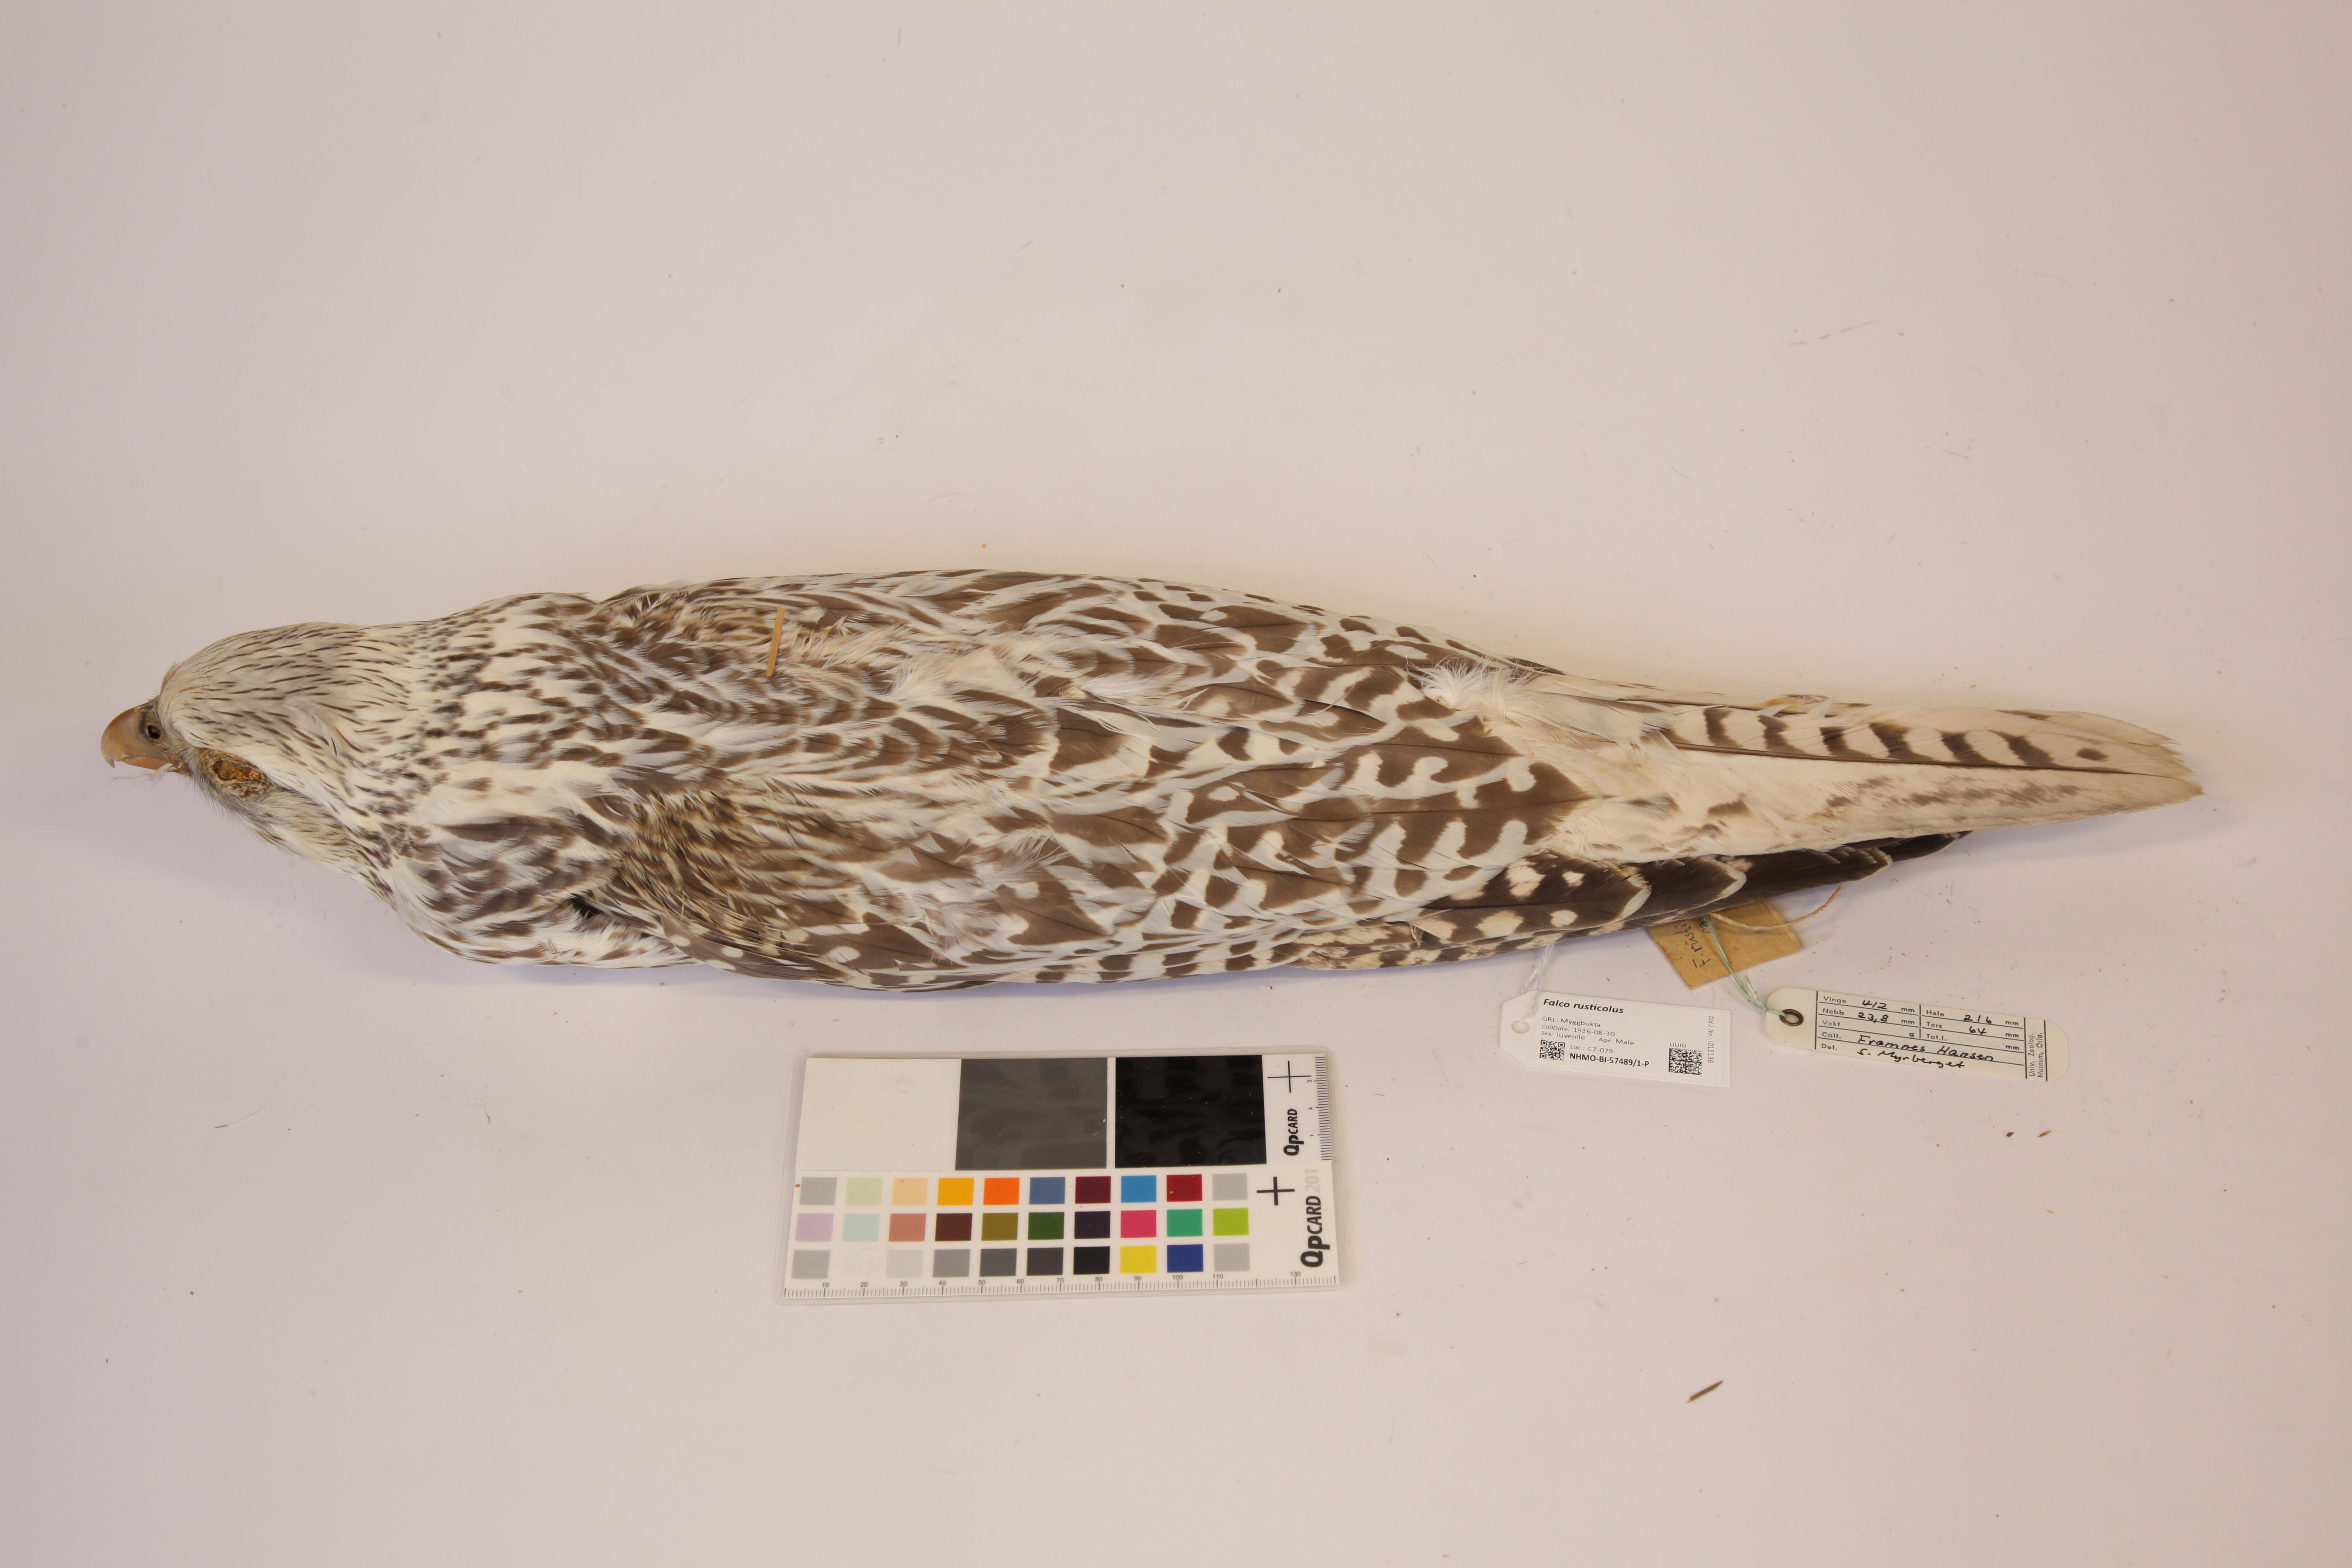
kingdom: Animalia
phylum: Chordata
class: Aves
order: Falconiformes
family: Falconidae
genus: Falco
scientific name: Falco rusticolus
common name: Gyrfalcon
